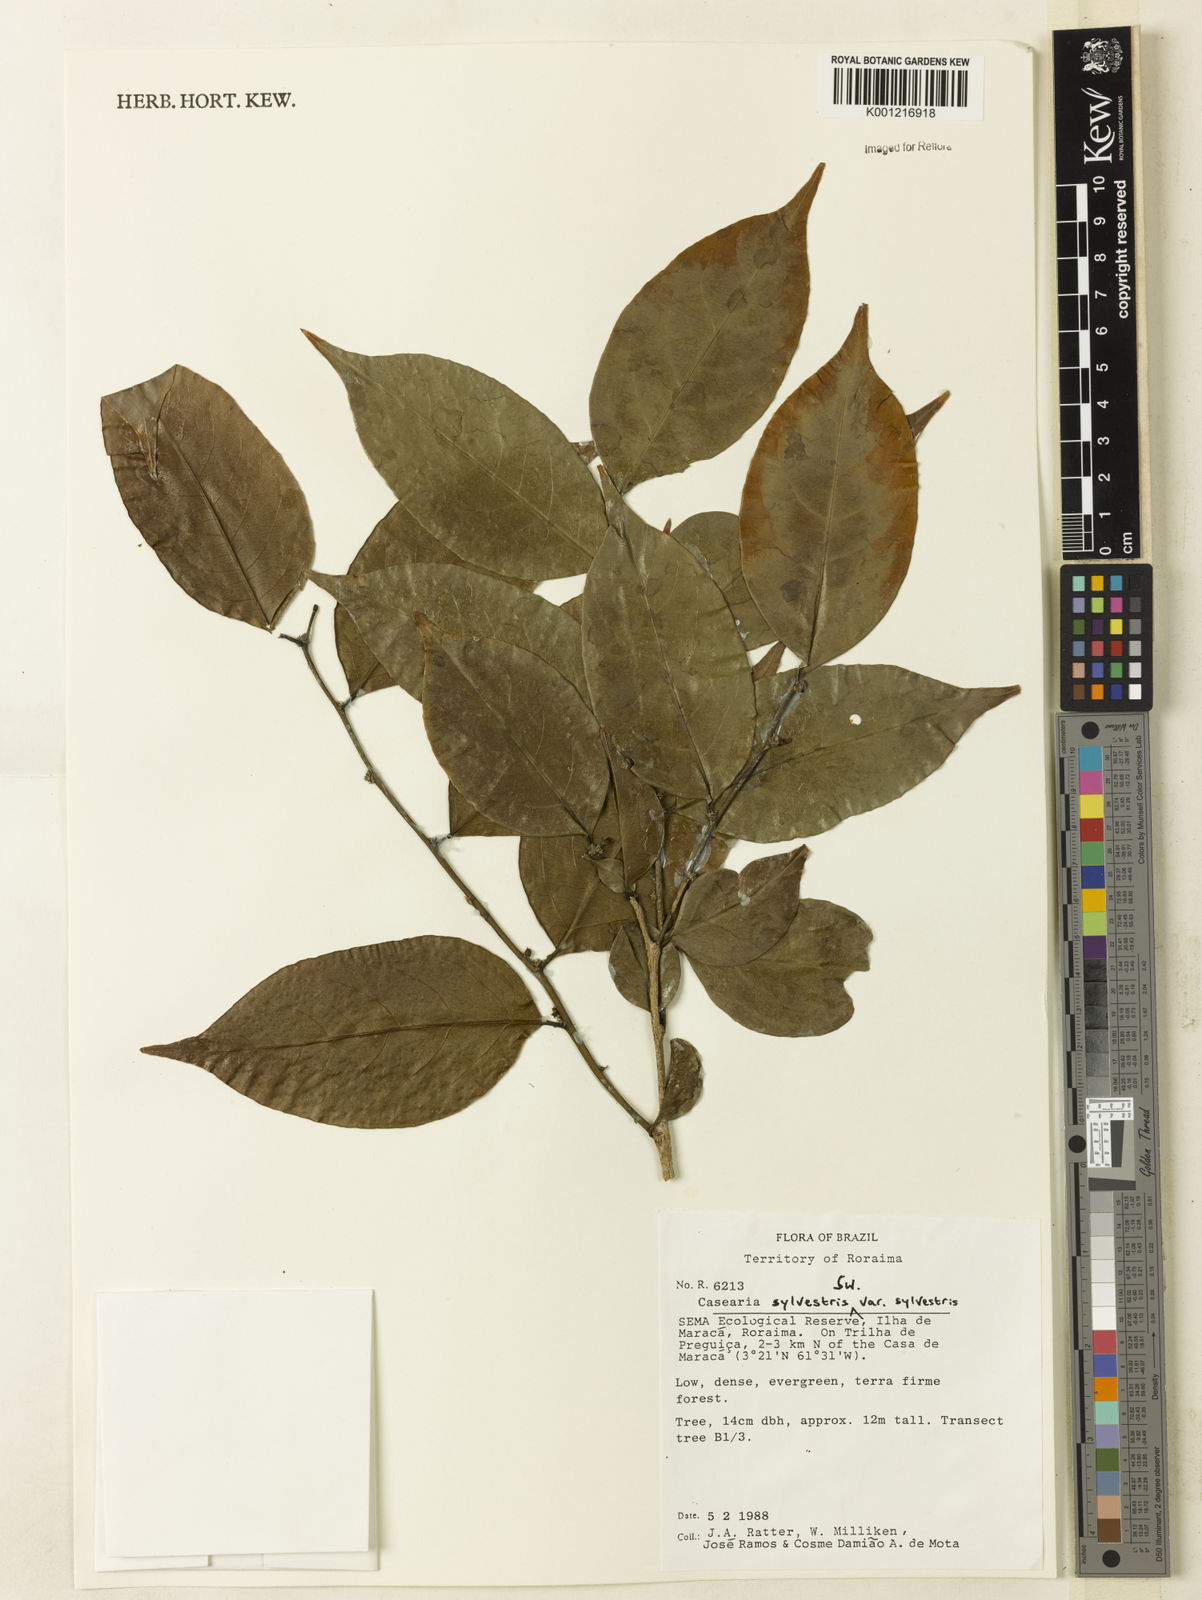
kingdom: Plantae
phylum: Tracheophyta
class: Magnoliopsida
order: Malpighiales
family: Salicaceae
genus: Casearia
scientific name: Casearia sylvestris
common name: Wild sage
